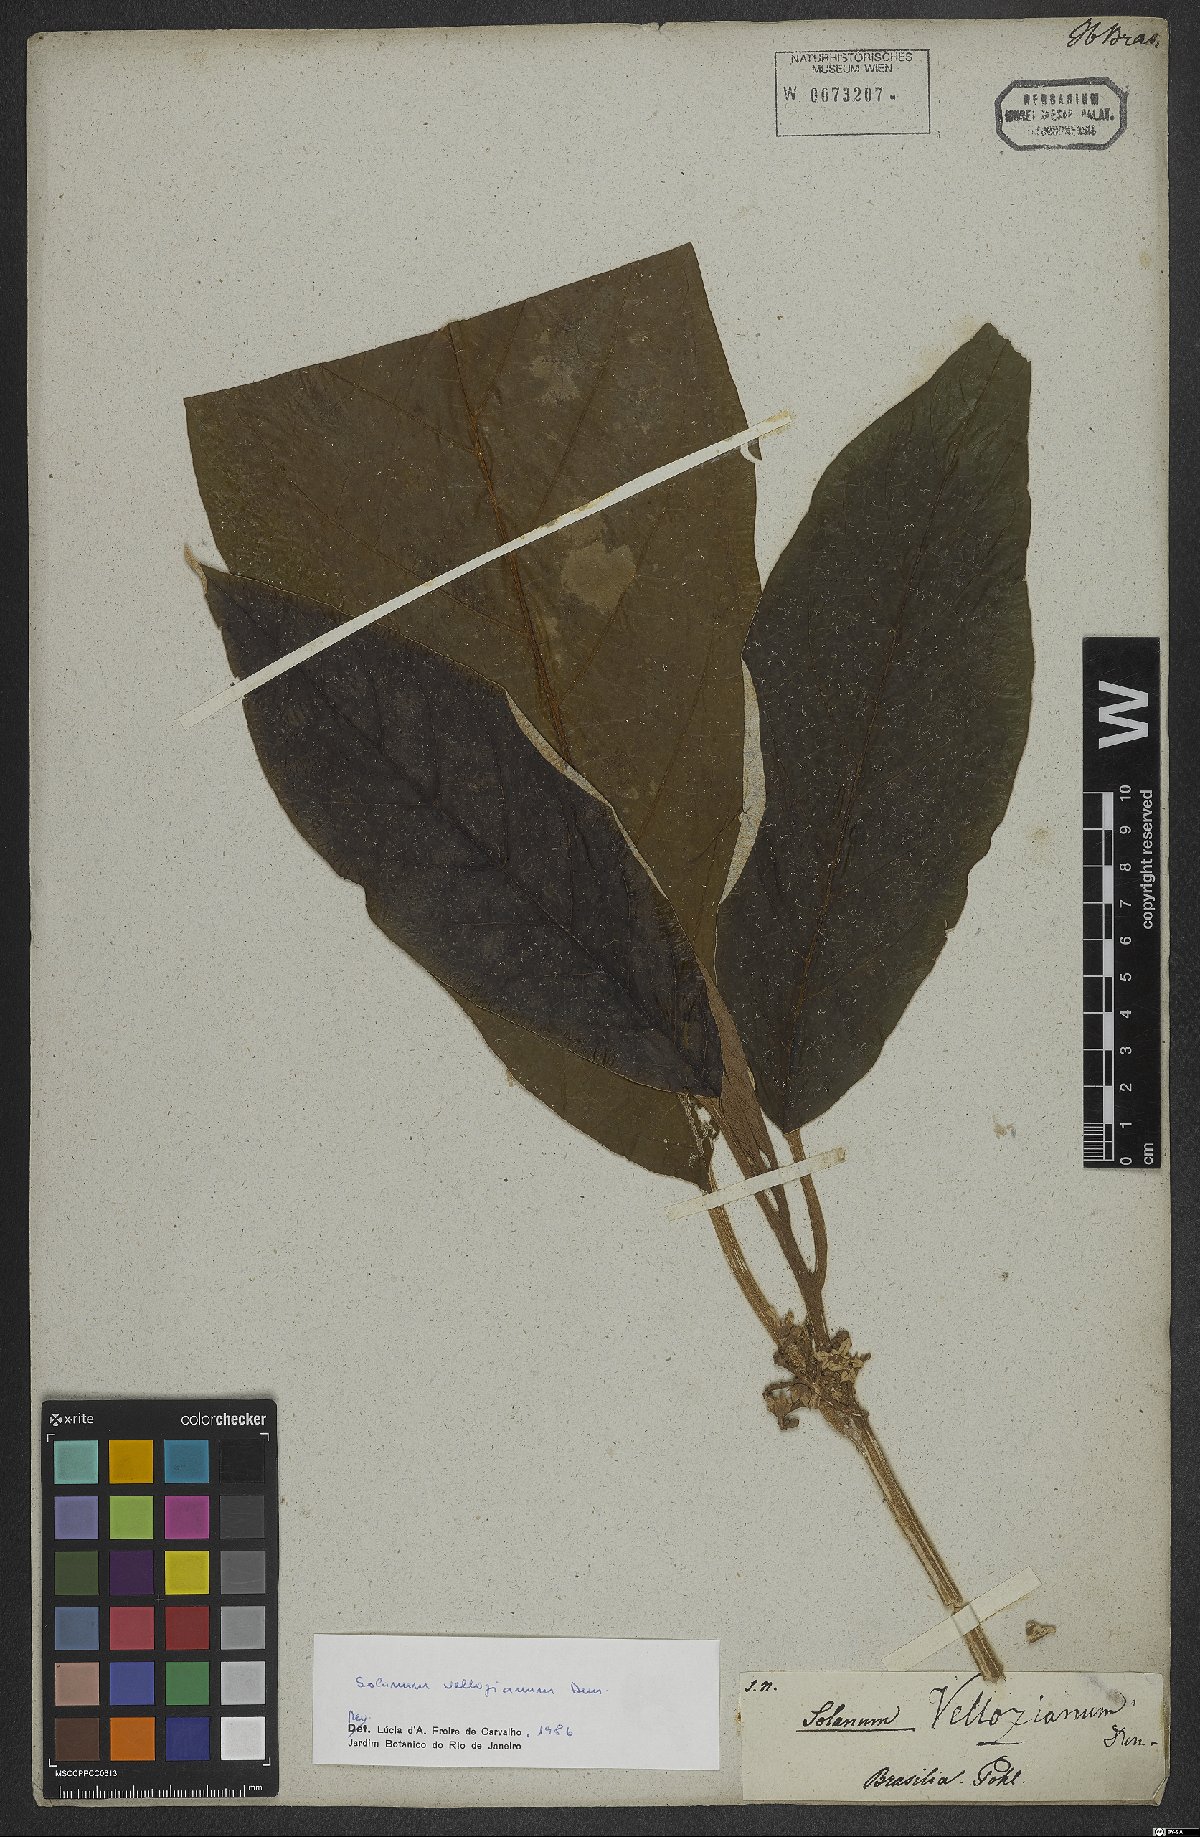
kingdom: Plantae
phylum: Tracheophyta
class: Magnoliopsida
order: Solanales
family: Solanaceae
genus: Solanum
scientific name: Solanum vellozianum
